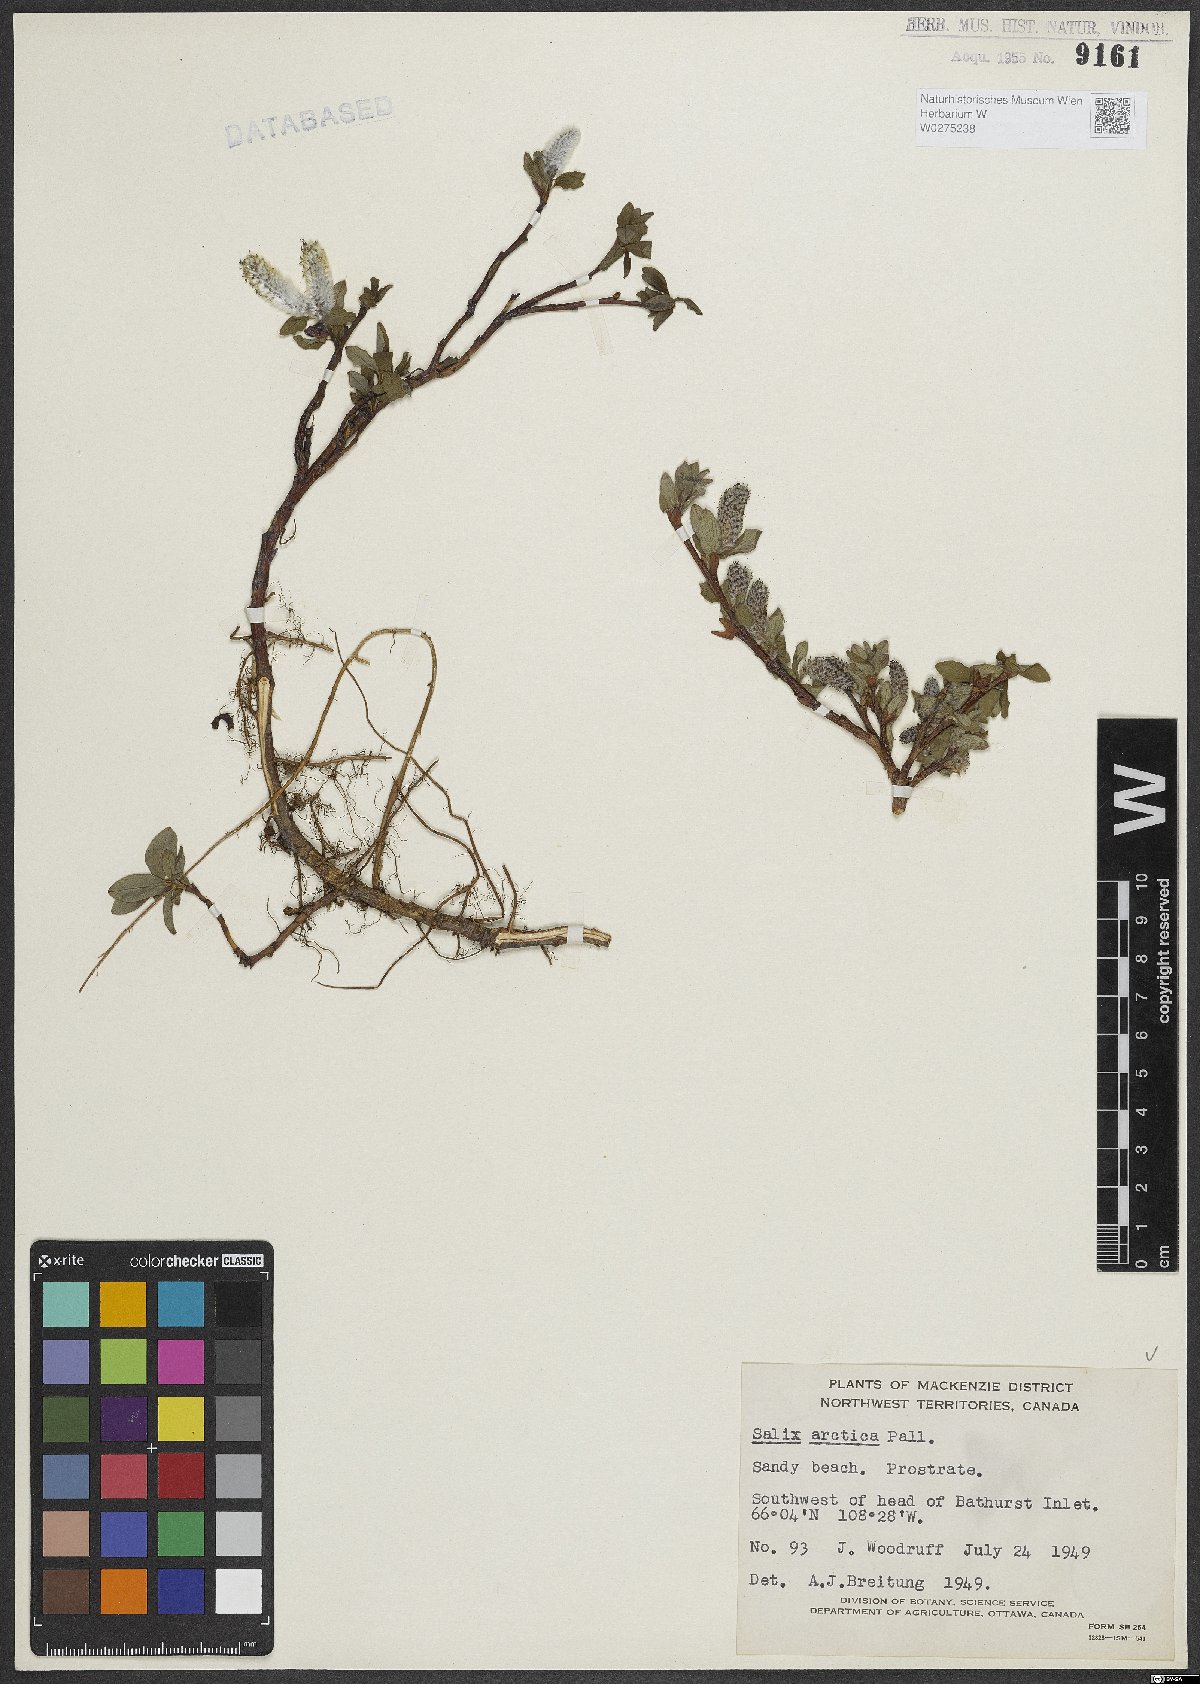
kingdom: Plantae
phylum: Tracheophyta
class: Magnoliopsida
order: Malpighiales
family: Salicaceae
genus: Salix
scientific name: Salix arctica
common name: Arctic willow
